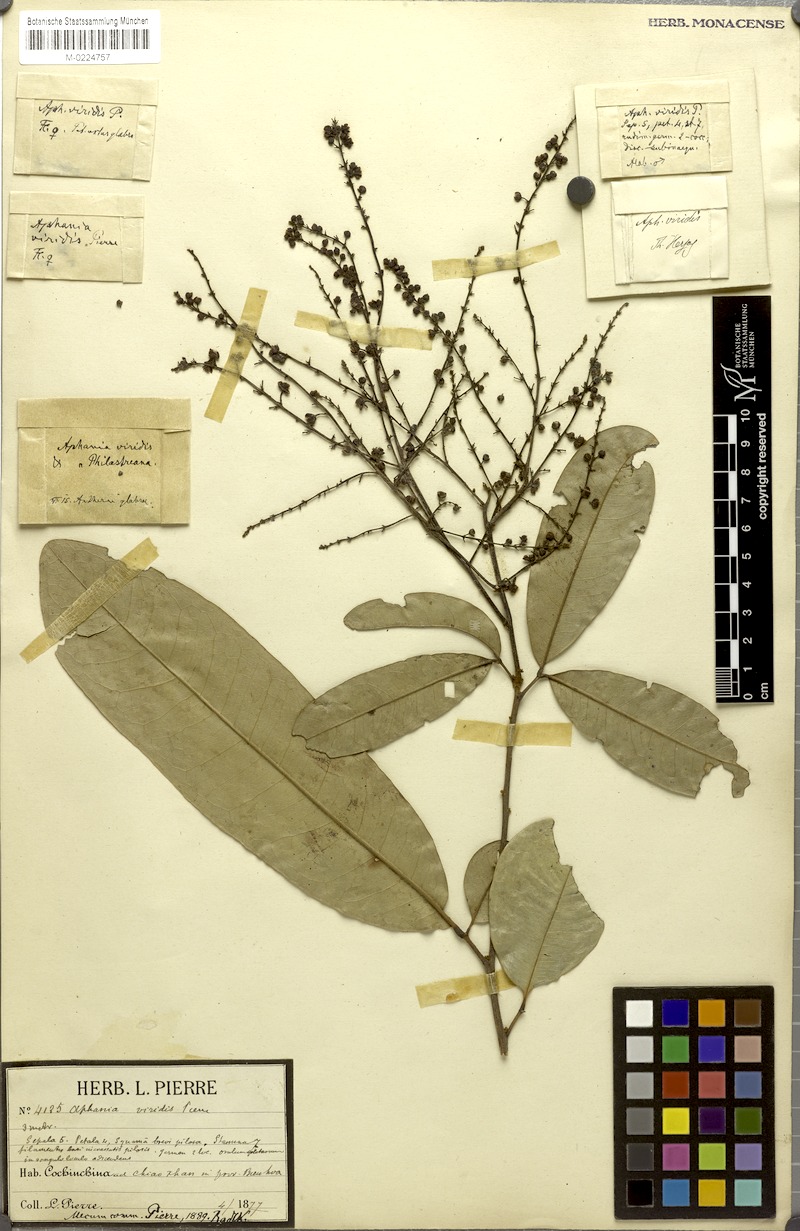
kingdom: Plantae
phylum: Tracheophyta
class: Magnoliopsida
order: Sapindales
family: Sapindaceae
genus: Lepisanthes
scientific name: Lepisanthes senegalensis
